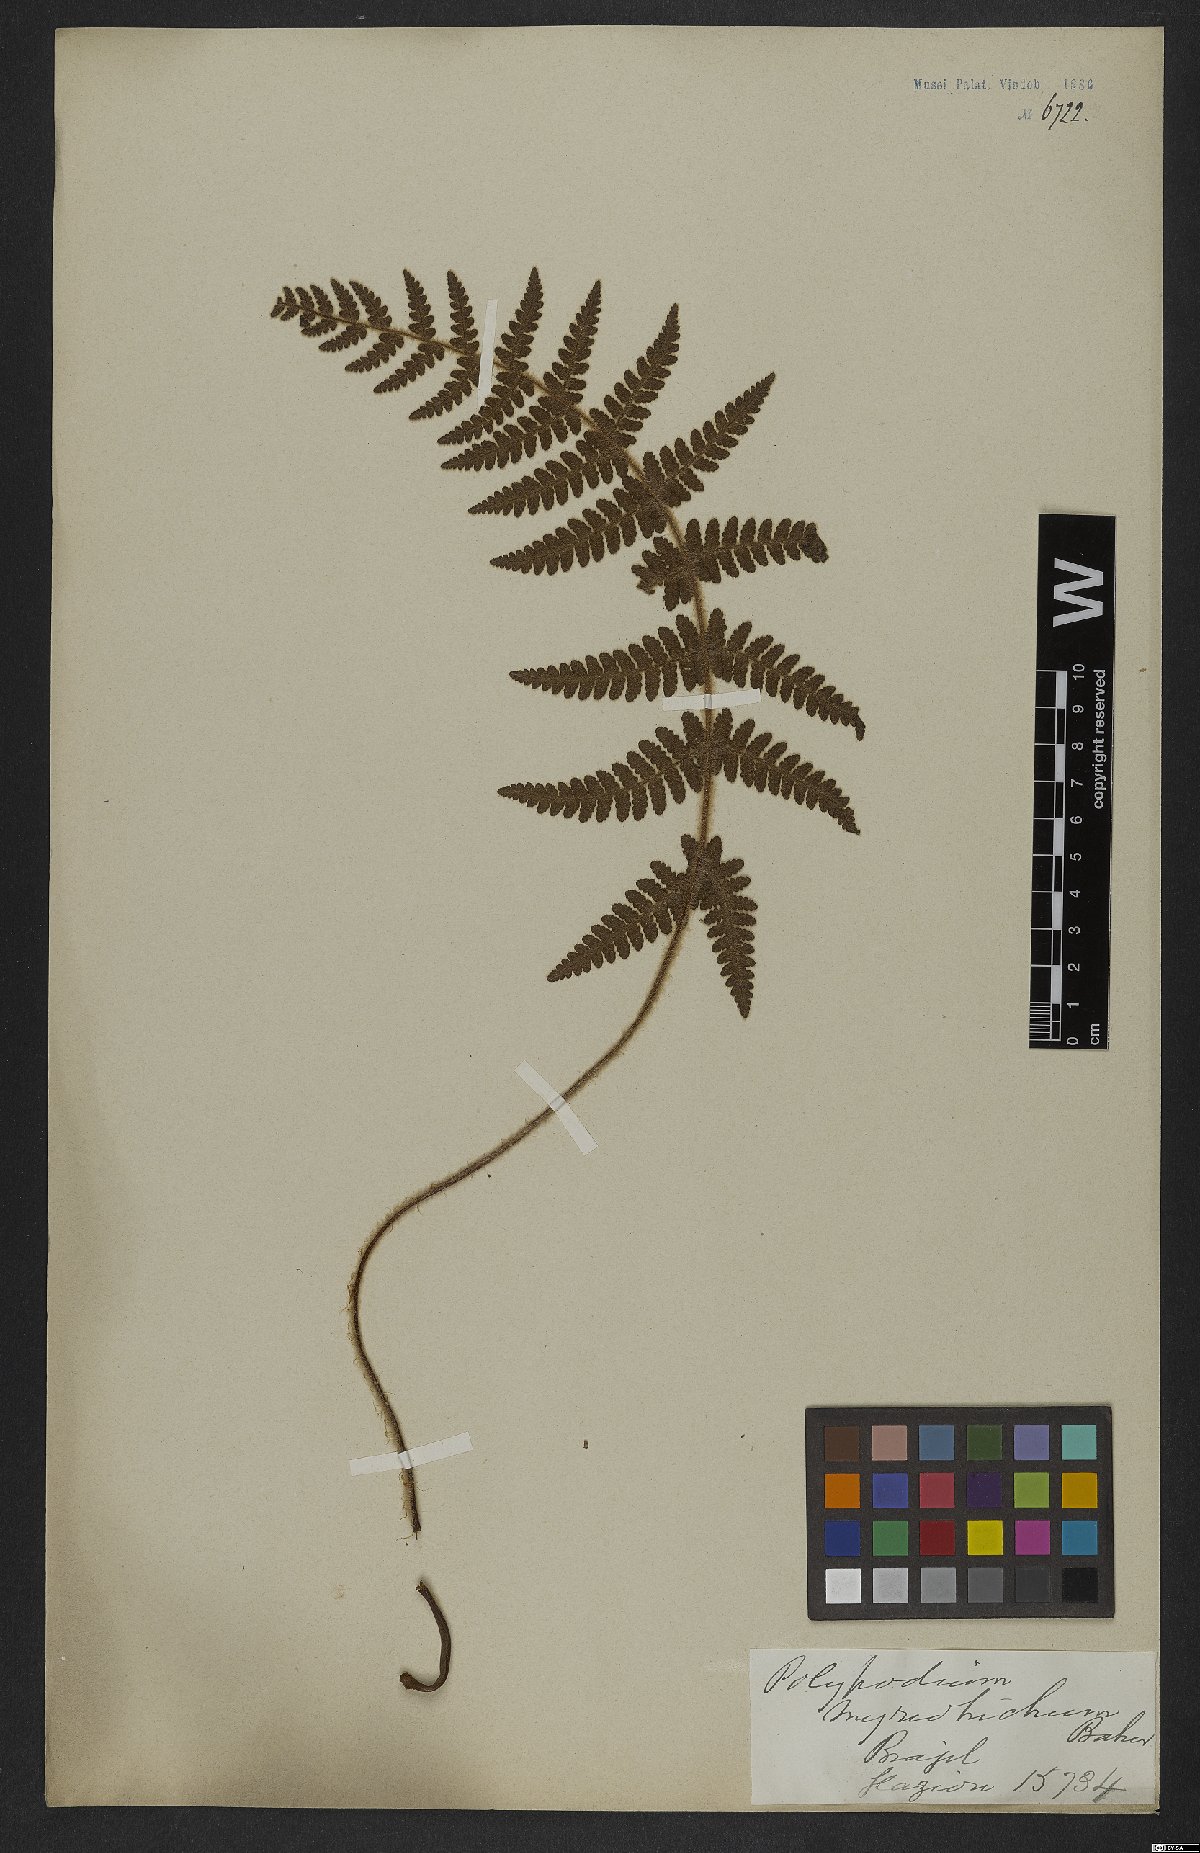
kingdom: Plantae
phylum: Tracheophyta
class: Polypodiopsida
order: Polypodiales
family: Dryopteridaceae
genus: Ctenitis
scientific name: Ctenitis hirta
